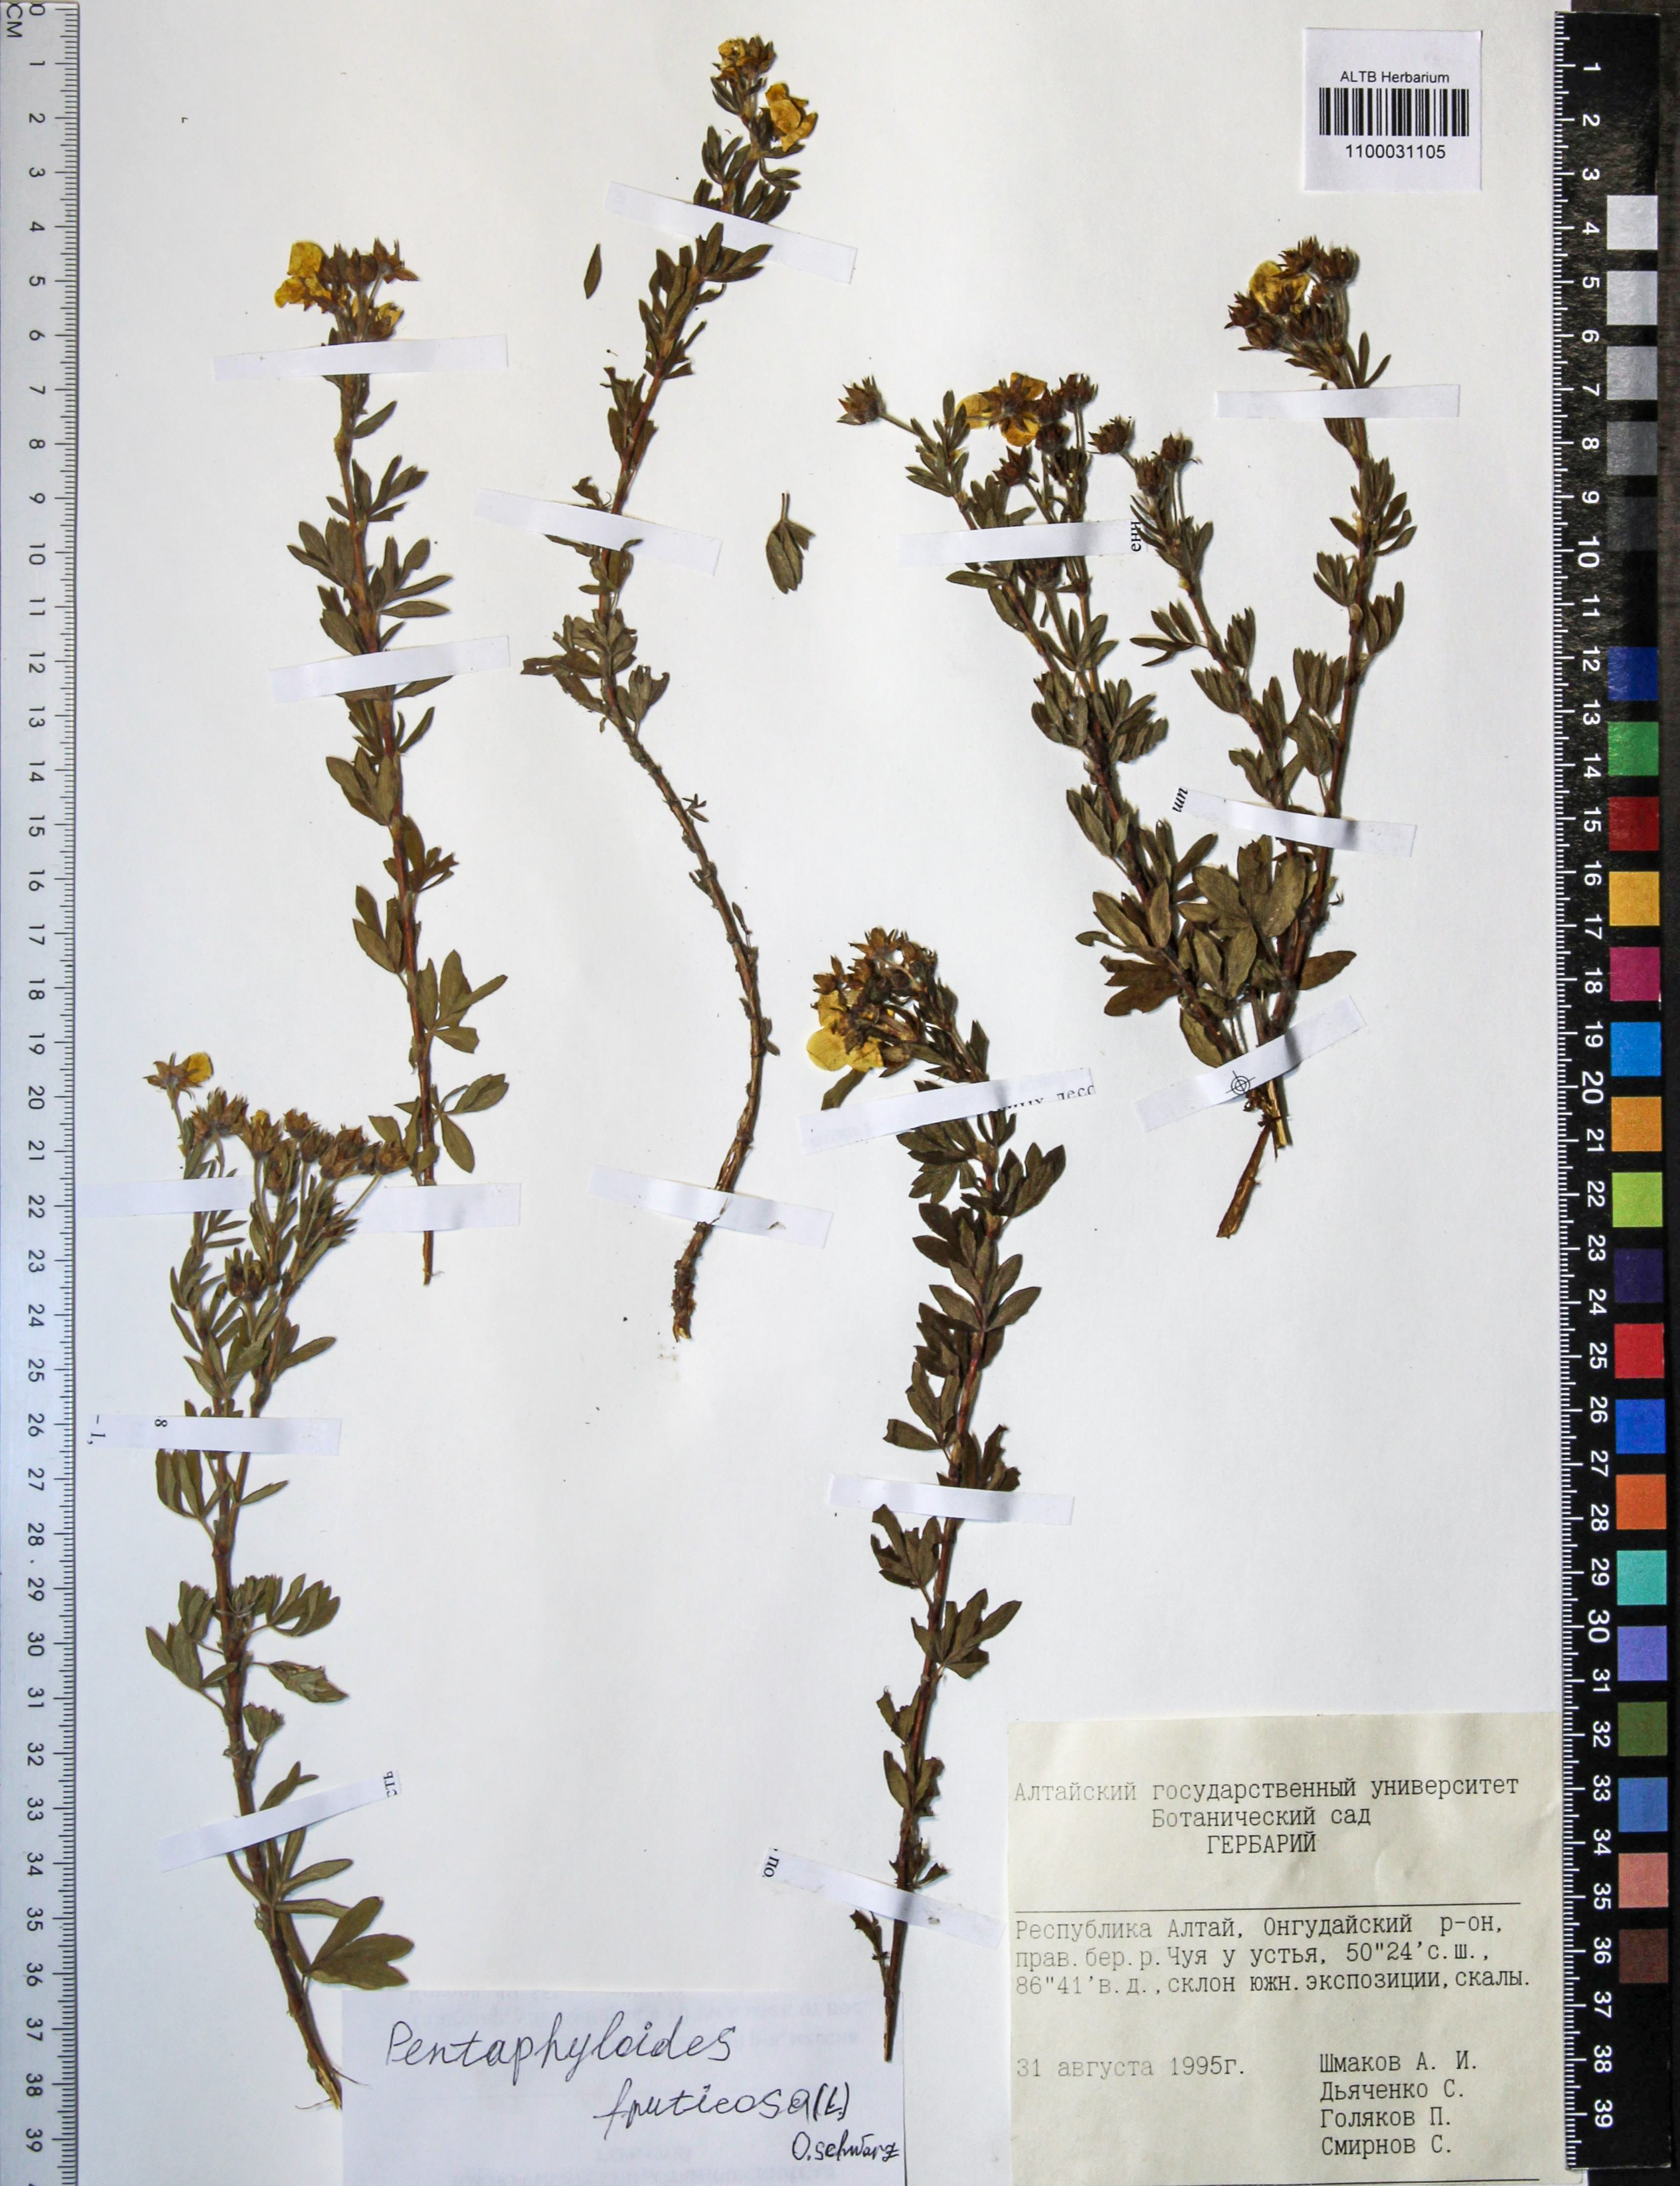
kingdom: Plantae
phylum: Tracheophyta
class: Magnoliopsida
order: Rosales
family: Rosaceae
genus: Dasiphora
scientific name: Dasiphora fruticosa
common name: Shrubby cinquefoil
